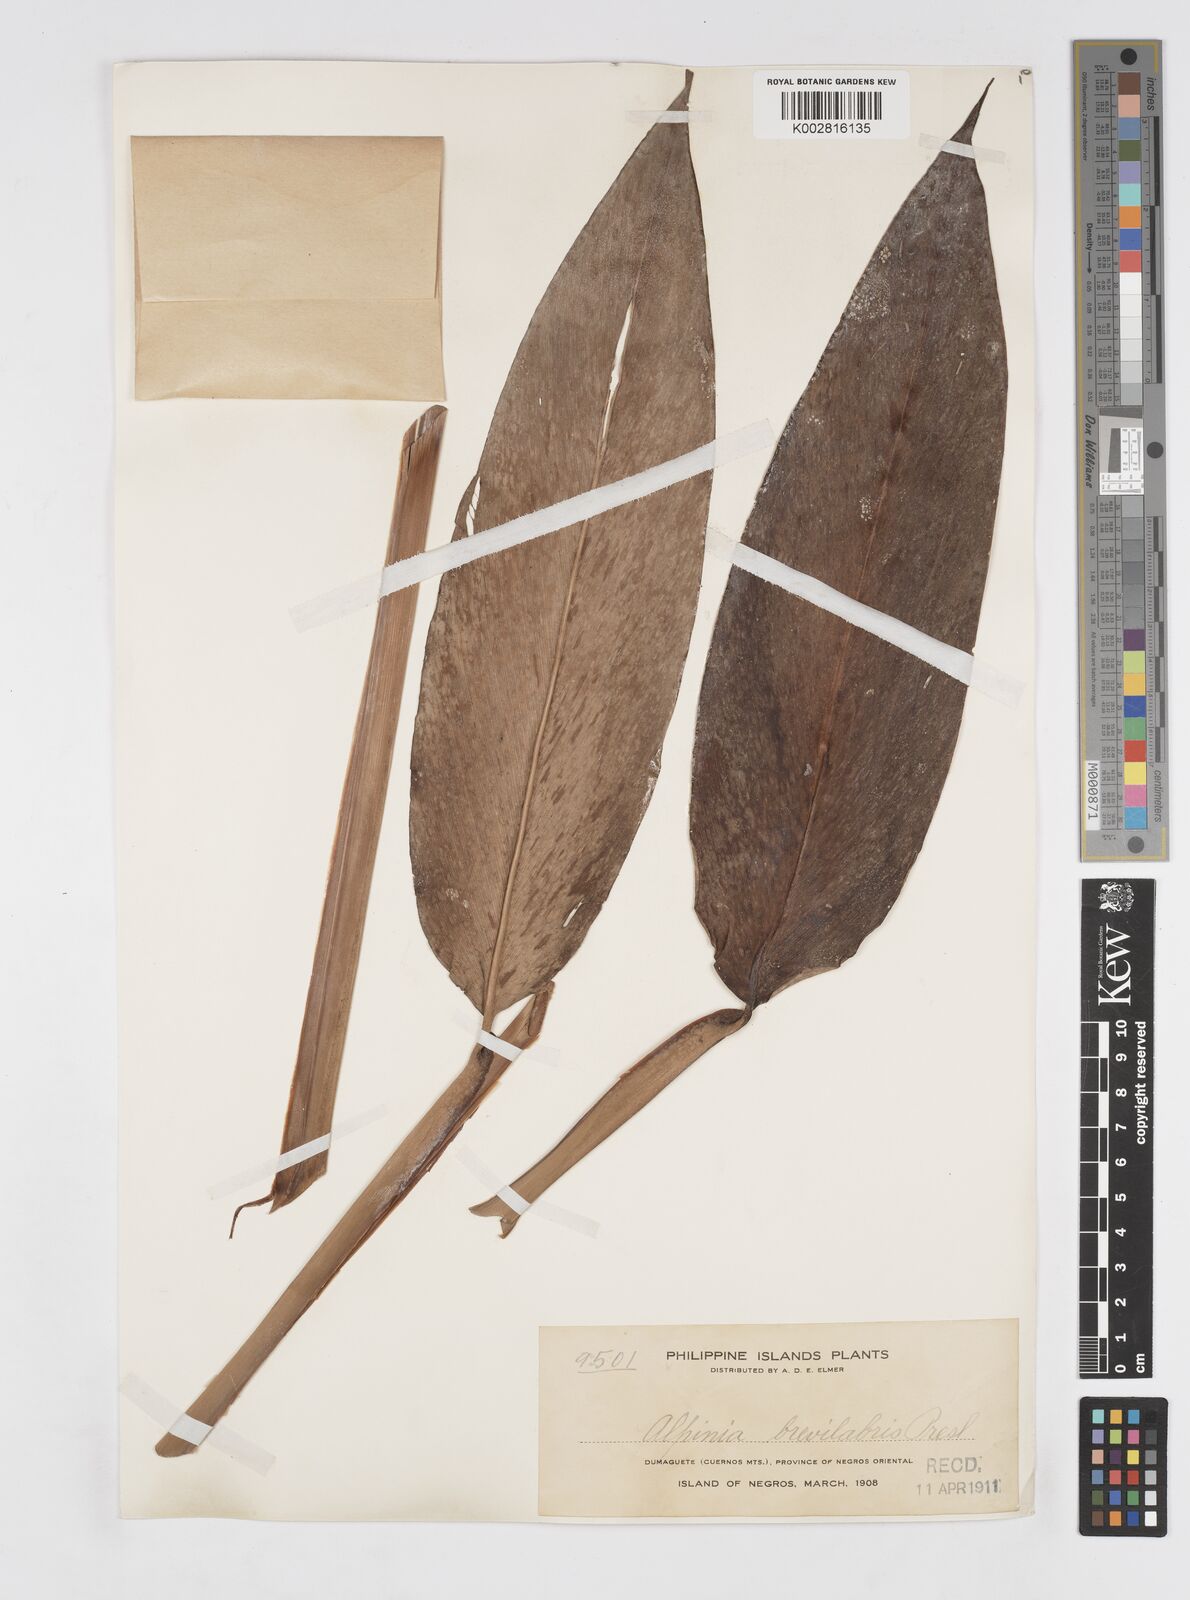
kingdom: Plantae
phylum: Tracheophyta
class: Liliopsida
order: Zingiberales
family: Zingiberaceae
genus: Alpinia
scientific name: Alpinia brevilabris
